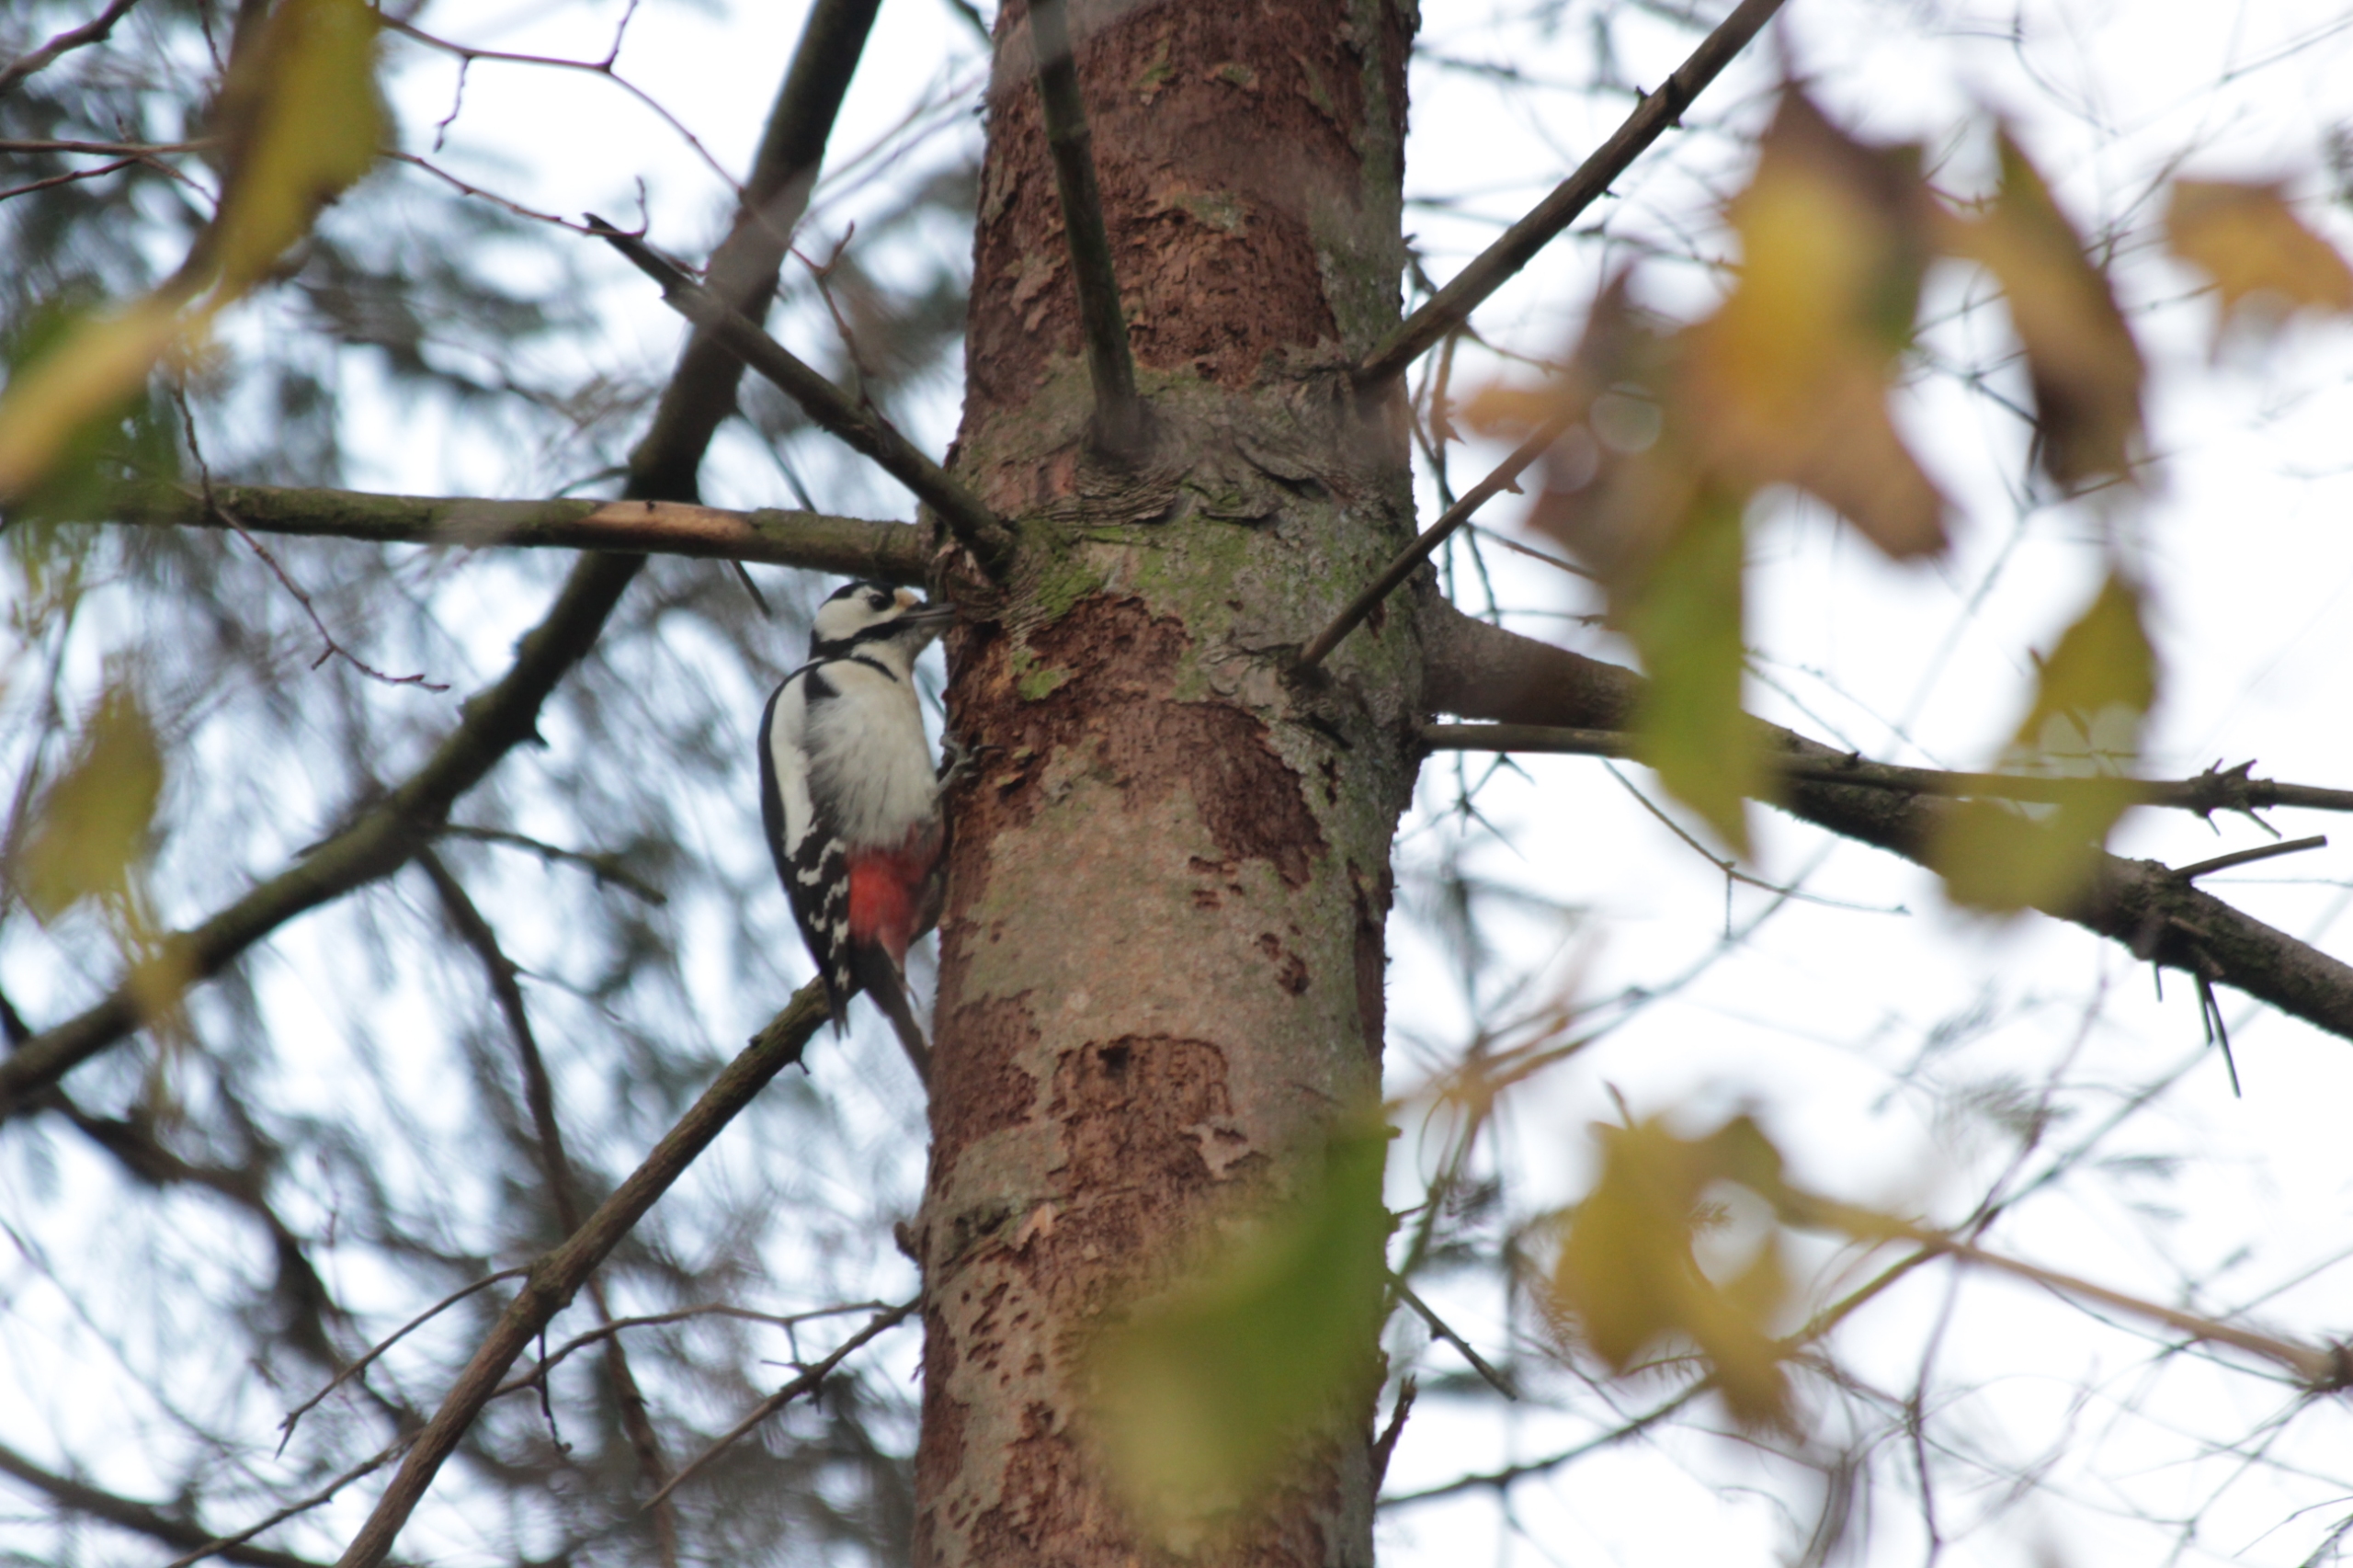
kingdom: Animalia
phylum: Chordata
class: Aves
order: Piciformes
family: Picidae
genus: Dendrocopos
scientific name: Dendrocopos major
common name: Stor flagspætte
